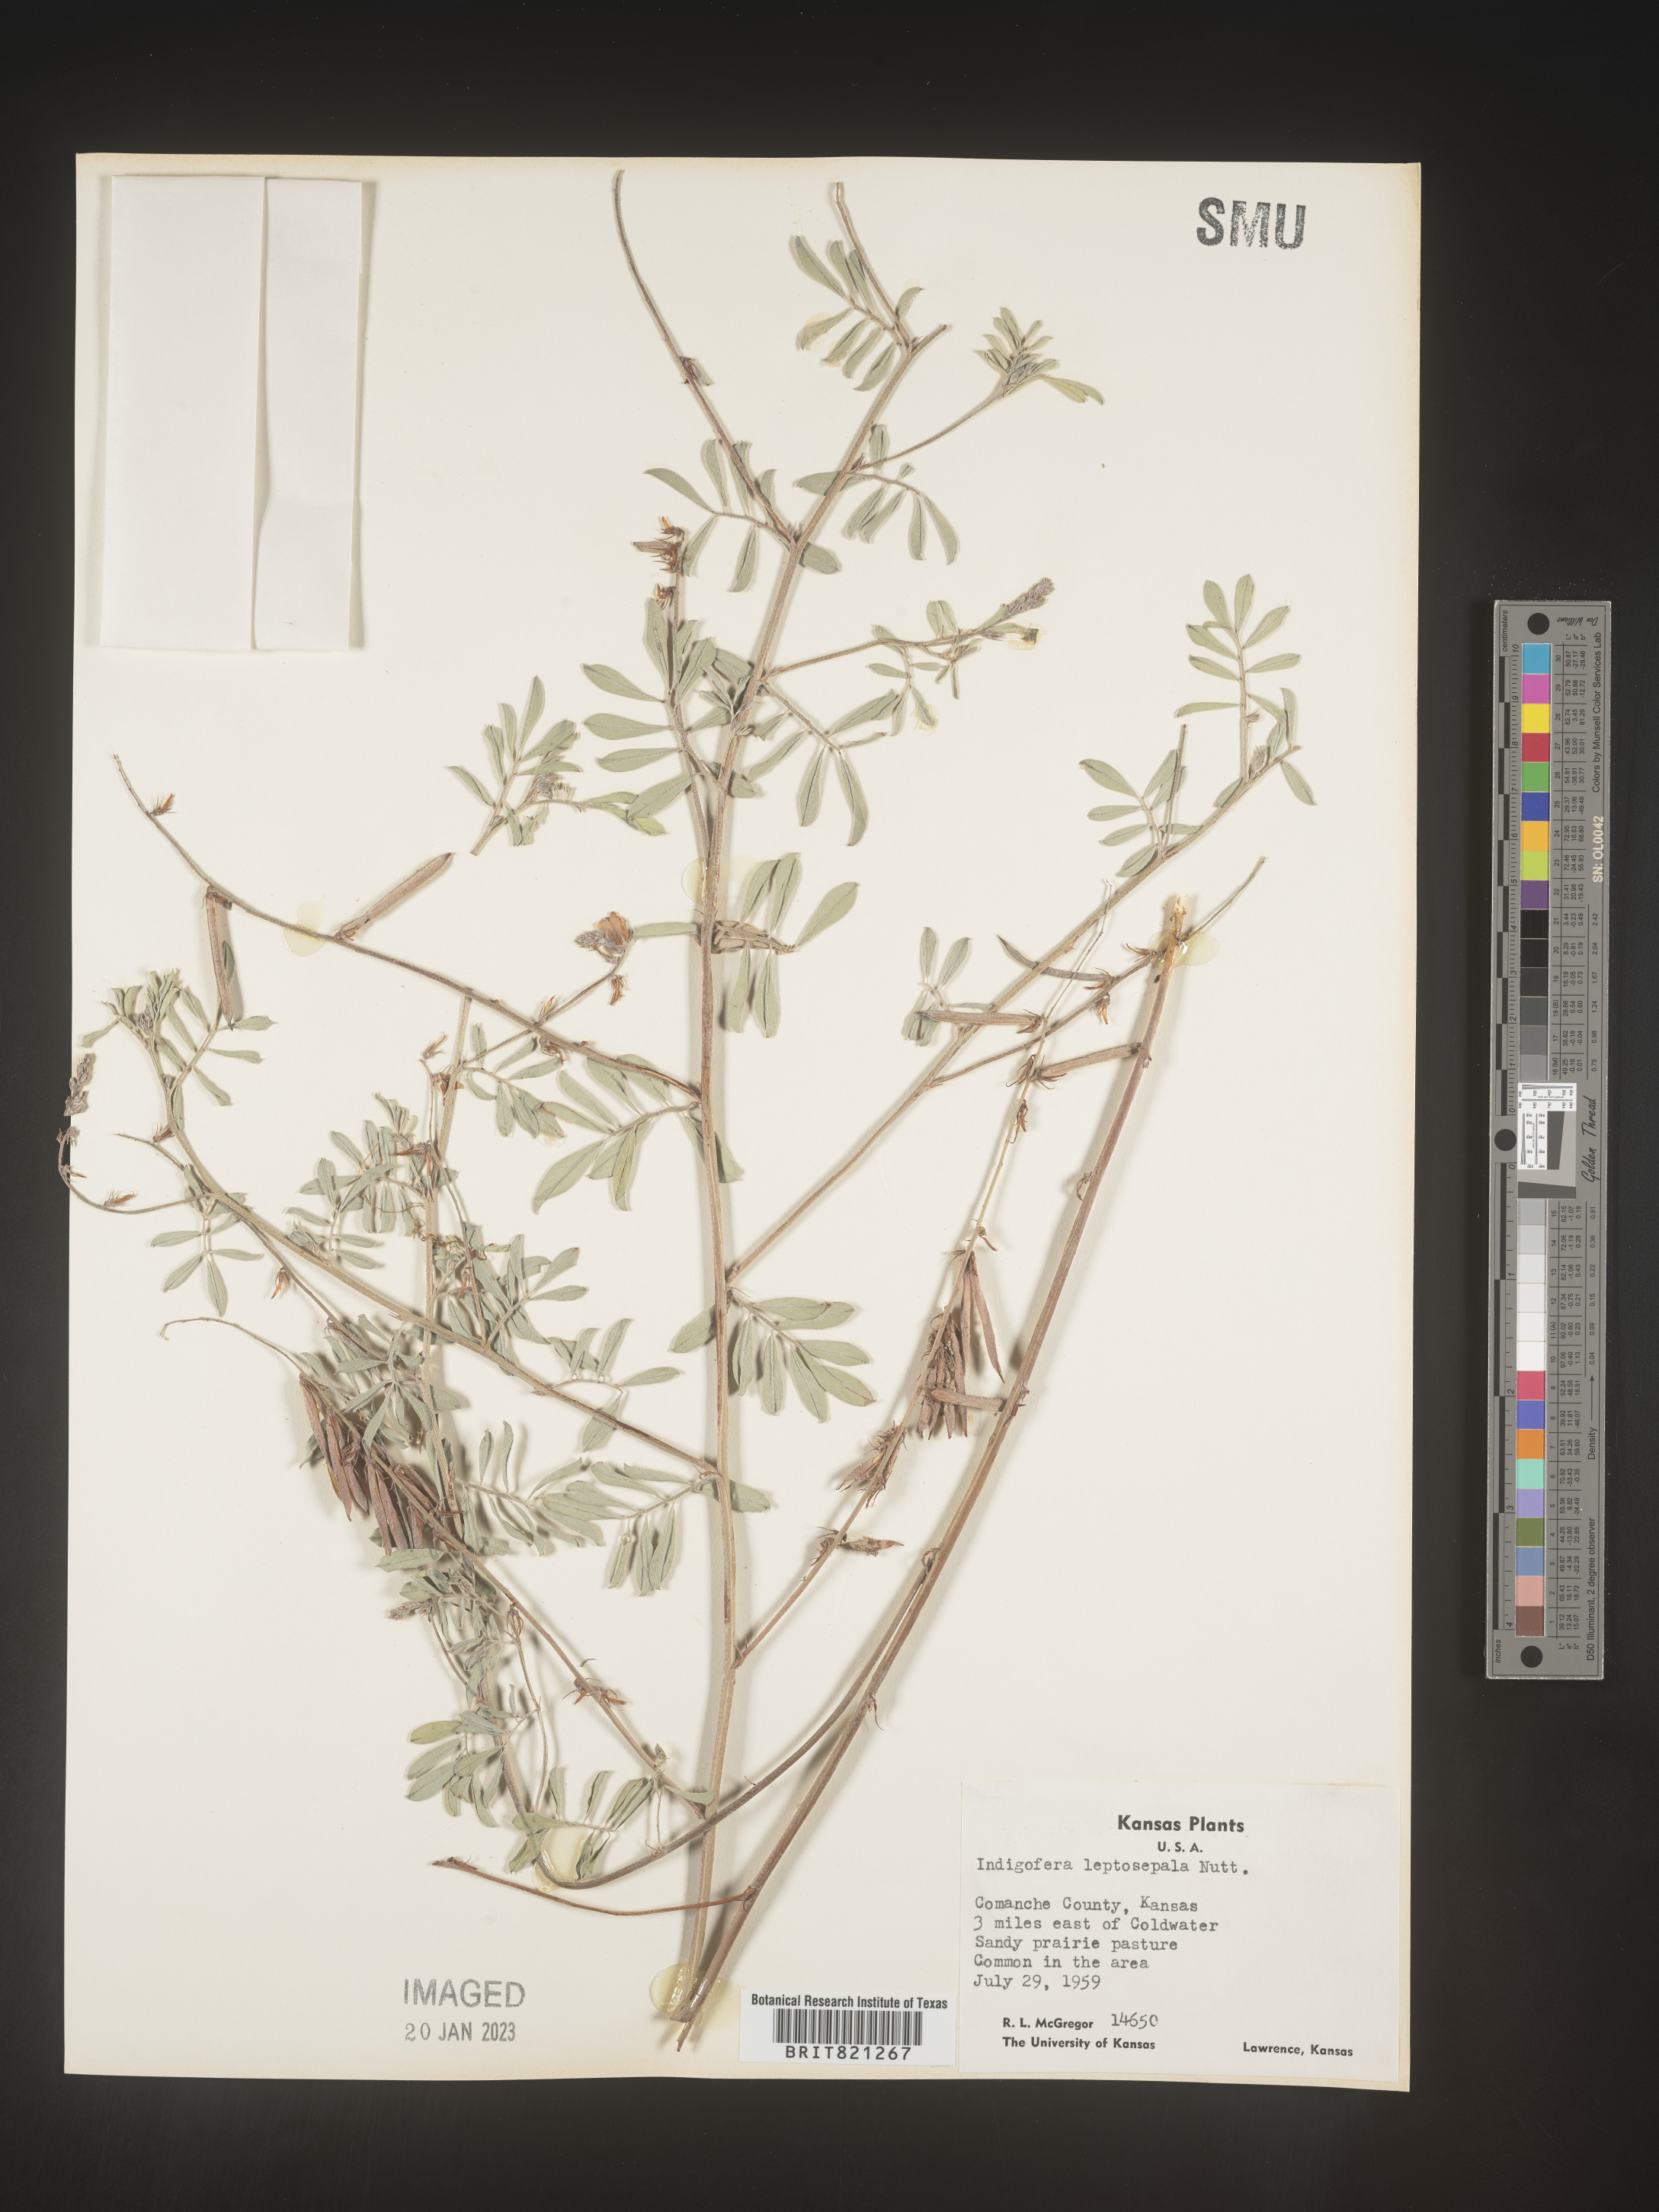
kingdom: Plantae
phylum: Tracheophyta
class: Magnoliopsida
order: Fabales
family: Fabaceae
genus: Indigofera
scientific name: Indigofera miniata
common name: Coast indigo
